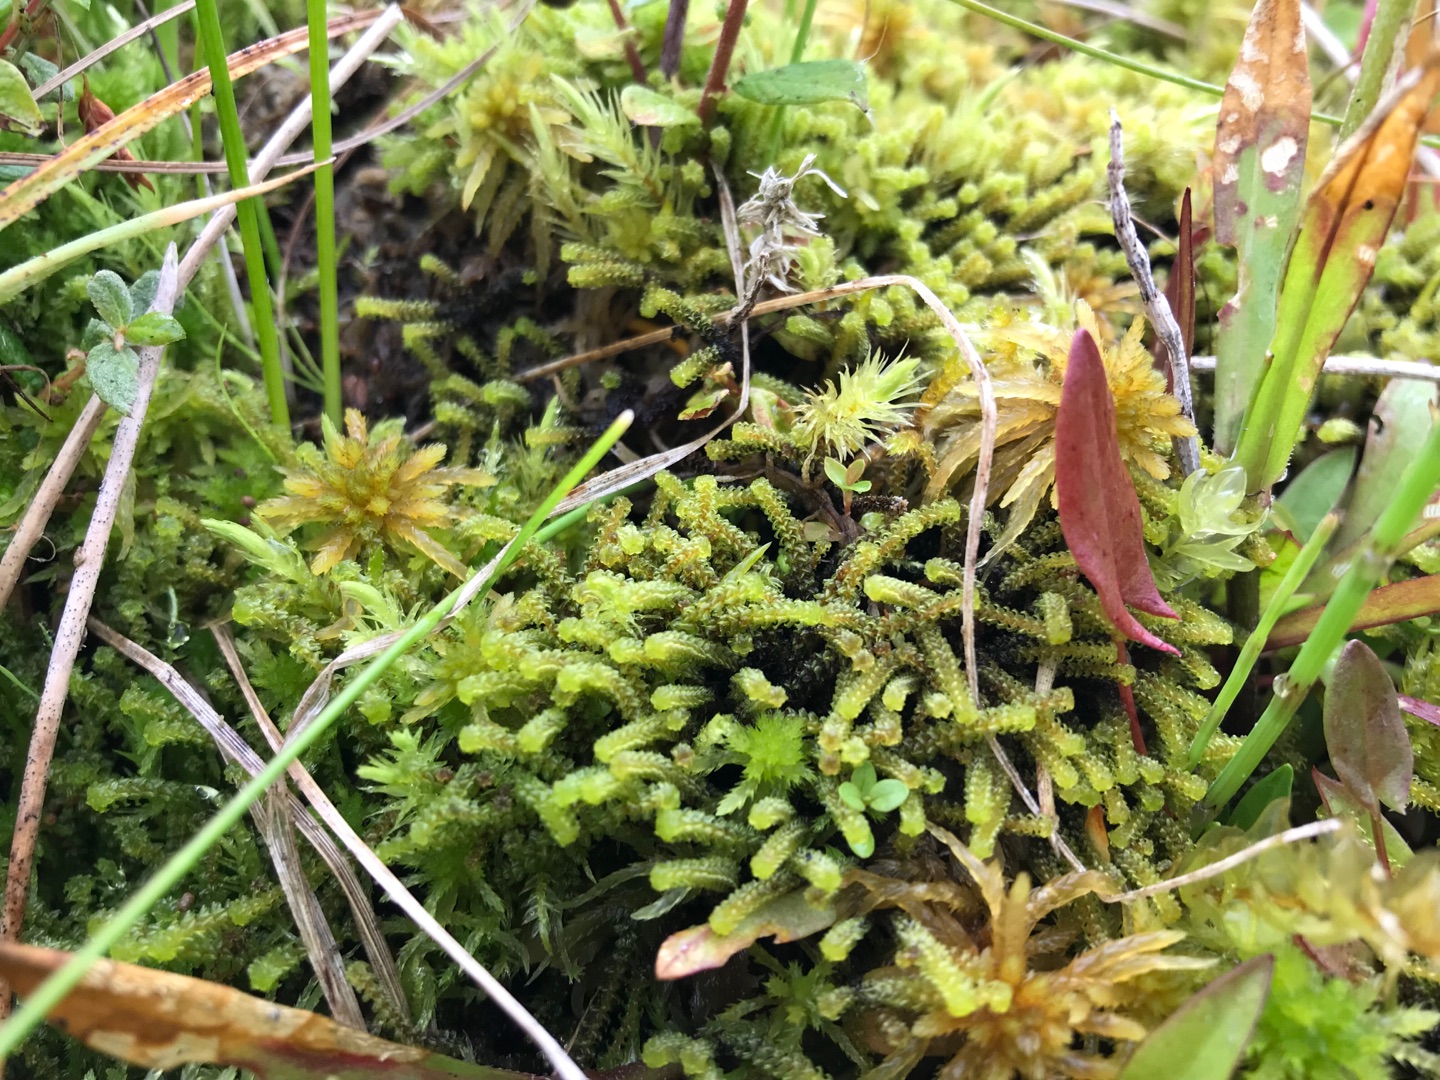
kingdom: Plantae
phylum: Bryophyta
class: Bryopsida
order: Splachnales
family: Meesiaceae
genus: Paludella
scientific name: Paludella squarrosa
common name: Almindelig piberensermos
